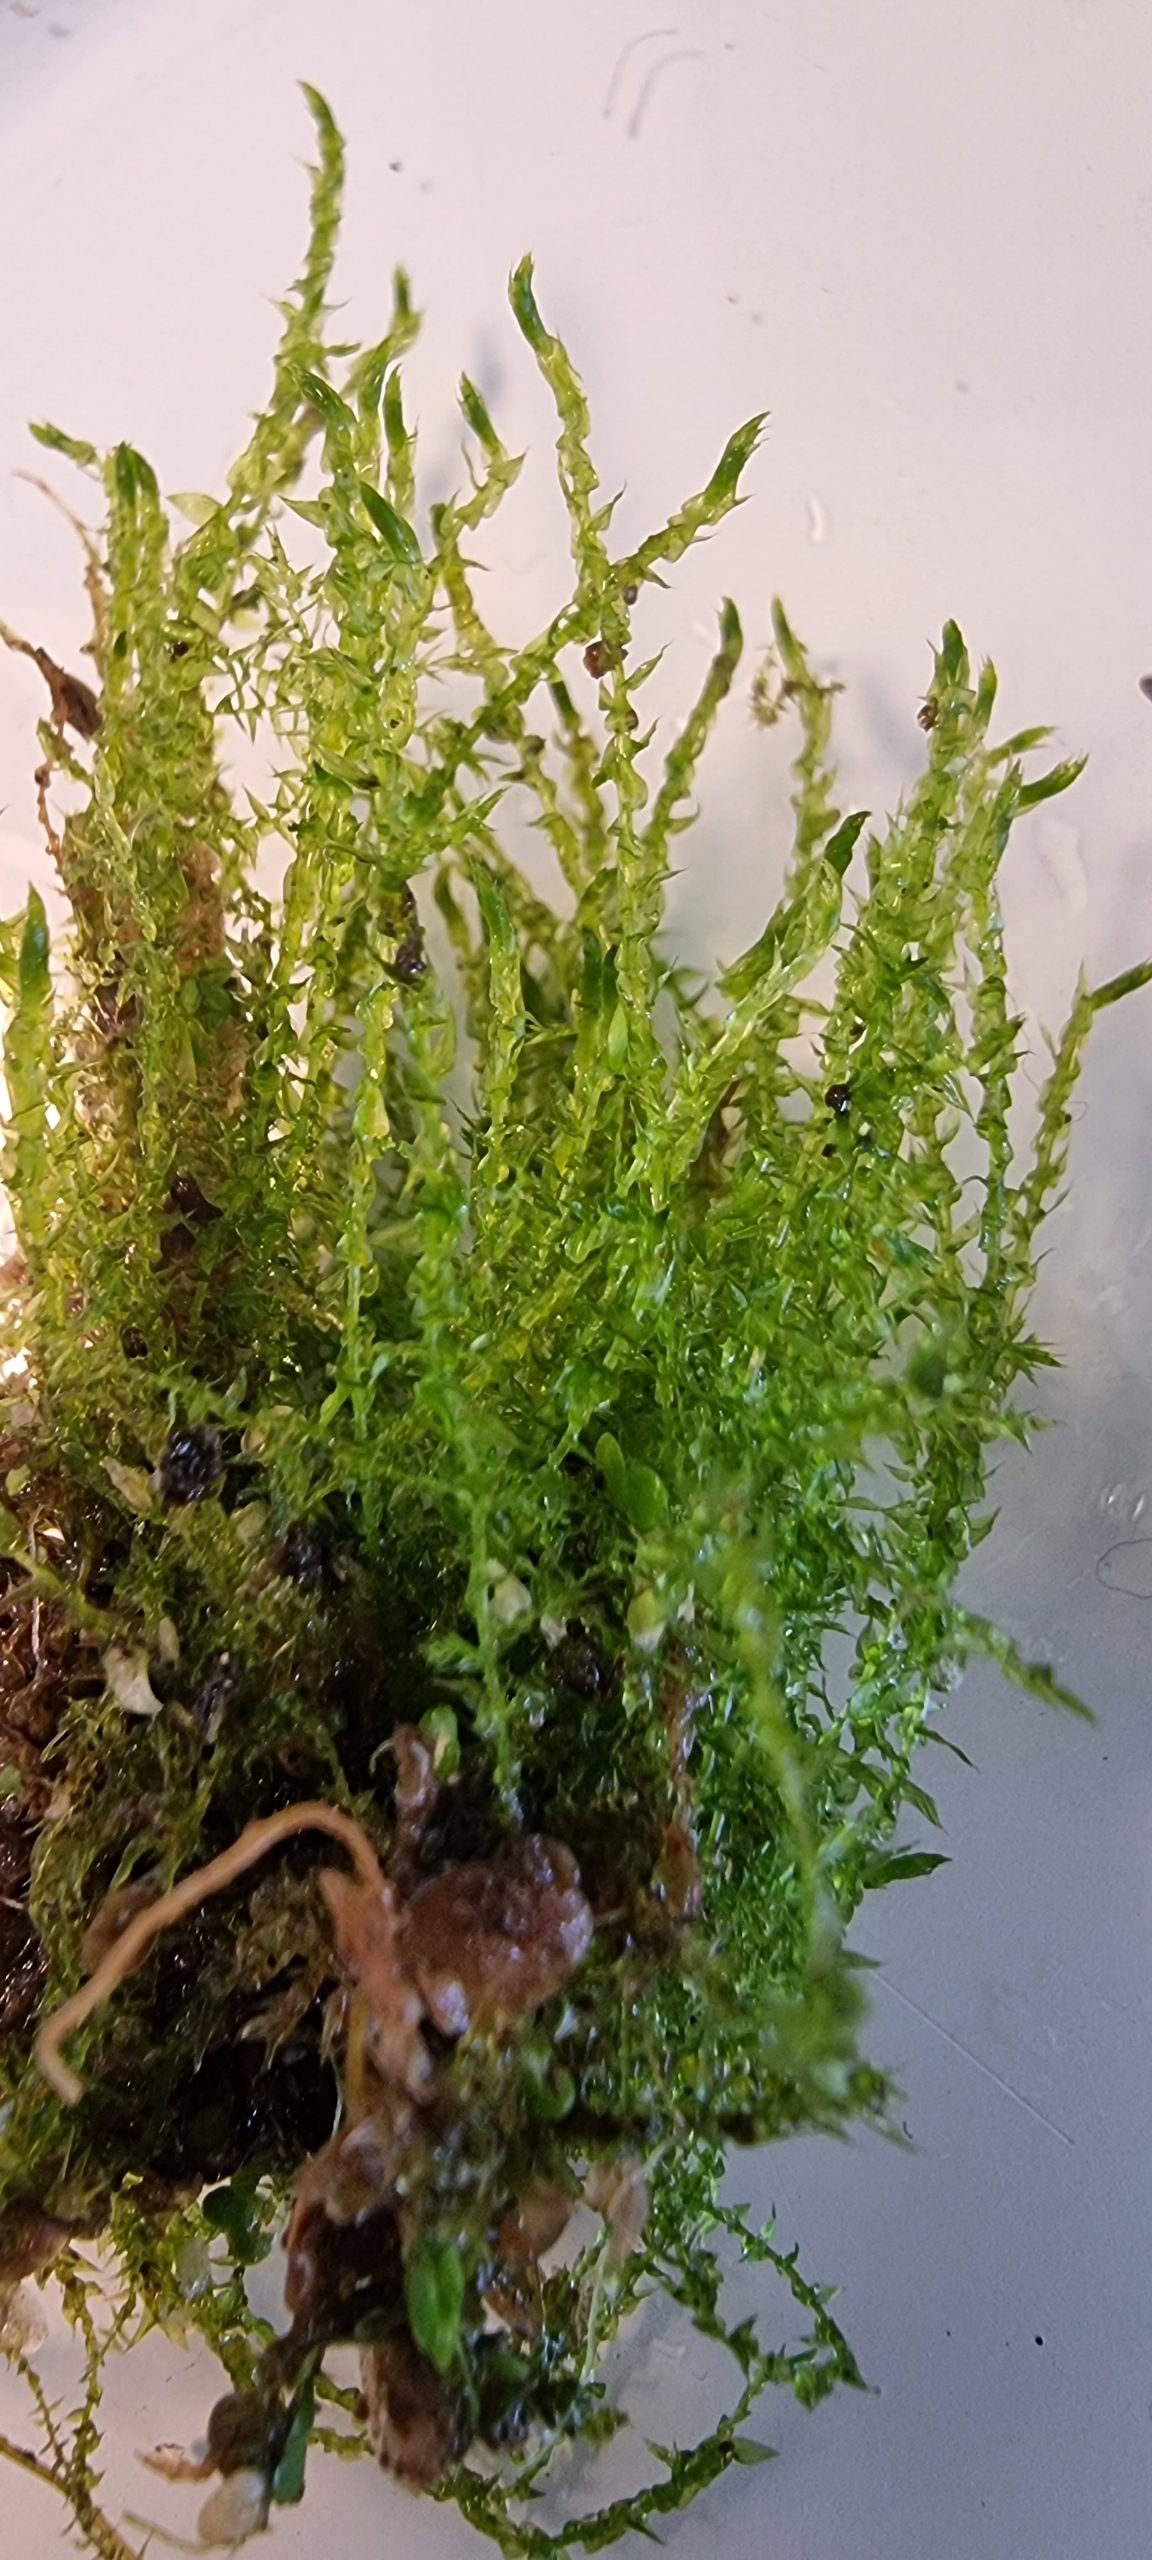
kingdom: Plantae
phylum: Bryophyta
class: Bryopsida
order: Hypnales
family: Amblystegiaceae
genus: Drepanocladus
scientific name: Drepanocladus aduncus
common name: Kær-seglmos
